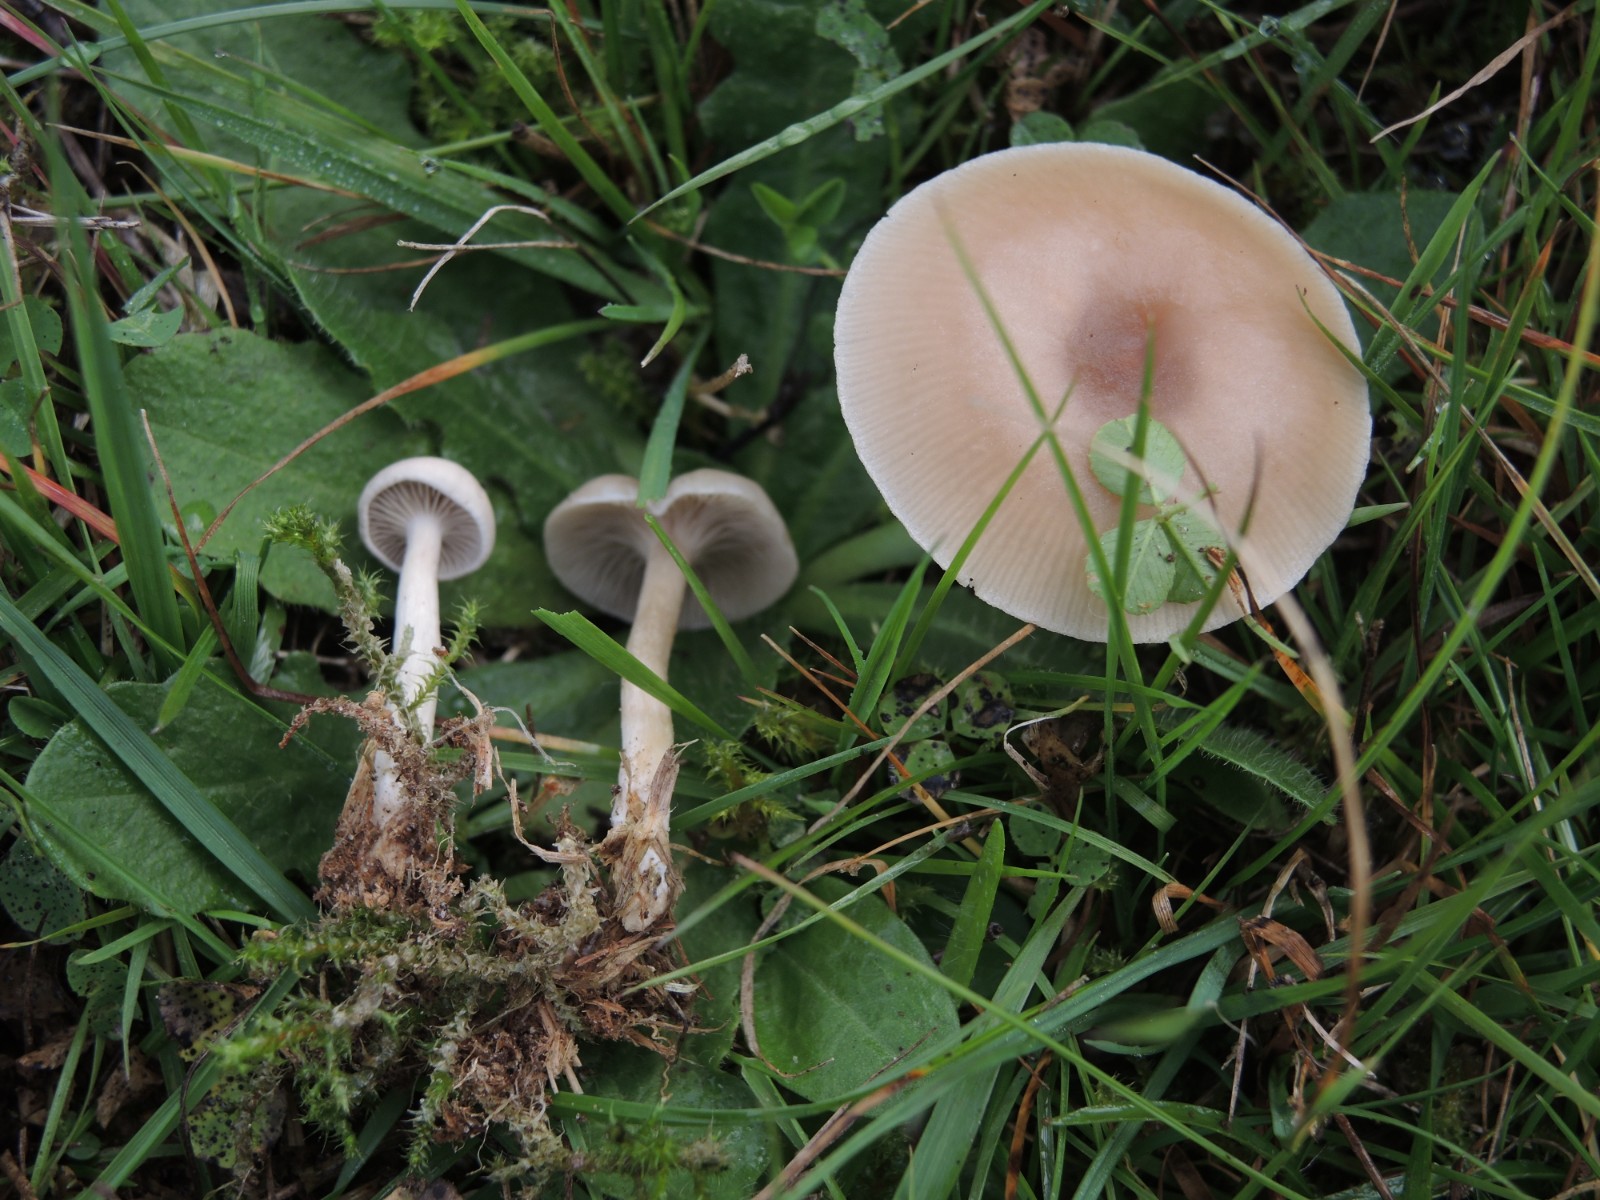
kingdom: Fungi
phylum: Basidiomycota
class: Agaricomycetes
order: Agaricales
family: Tricholomataceae
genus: Clitocybe
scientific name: Clitocybe fragrans
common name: vellugtende tragthat
